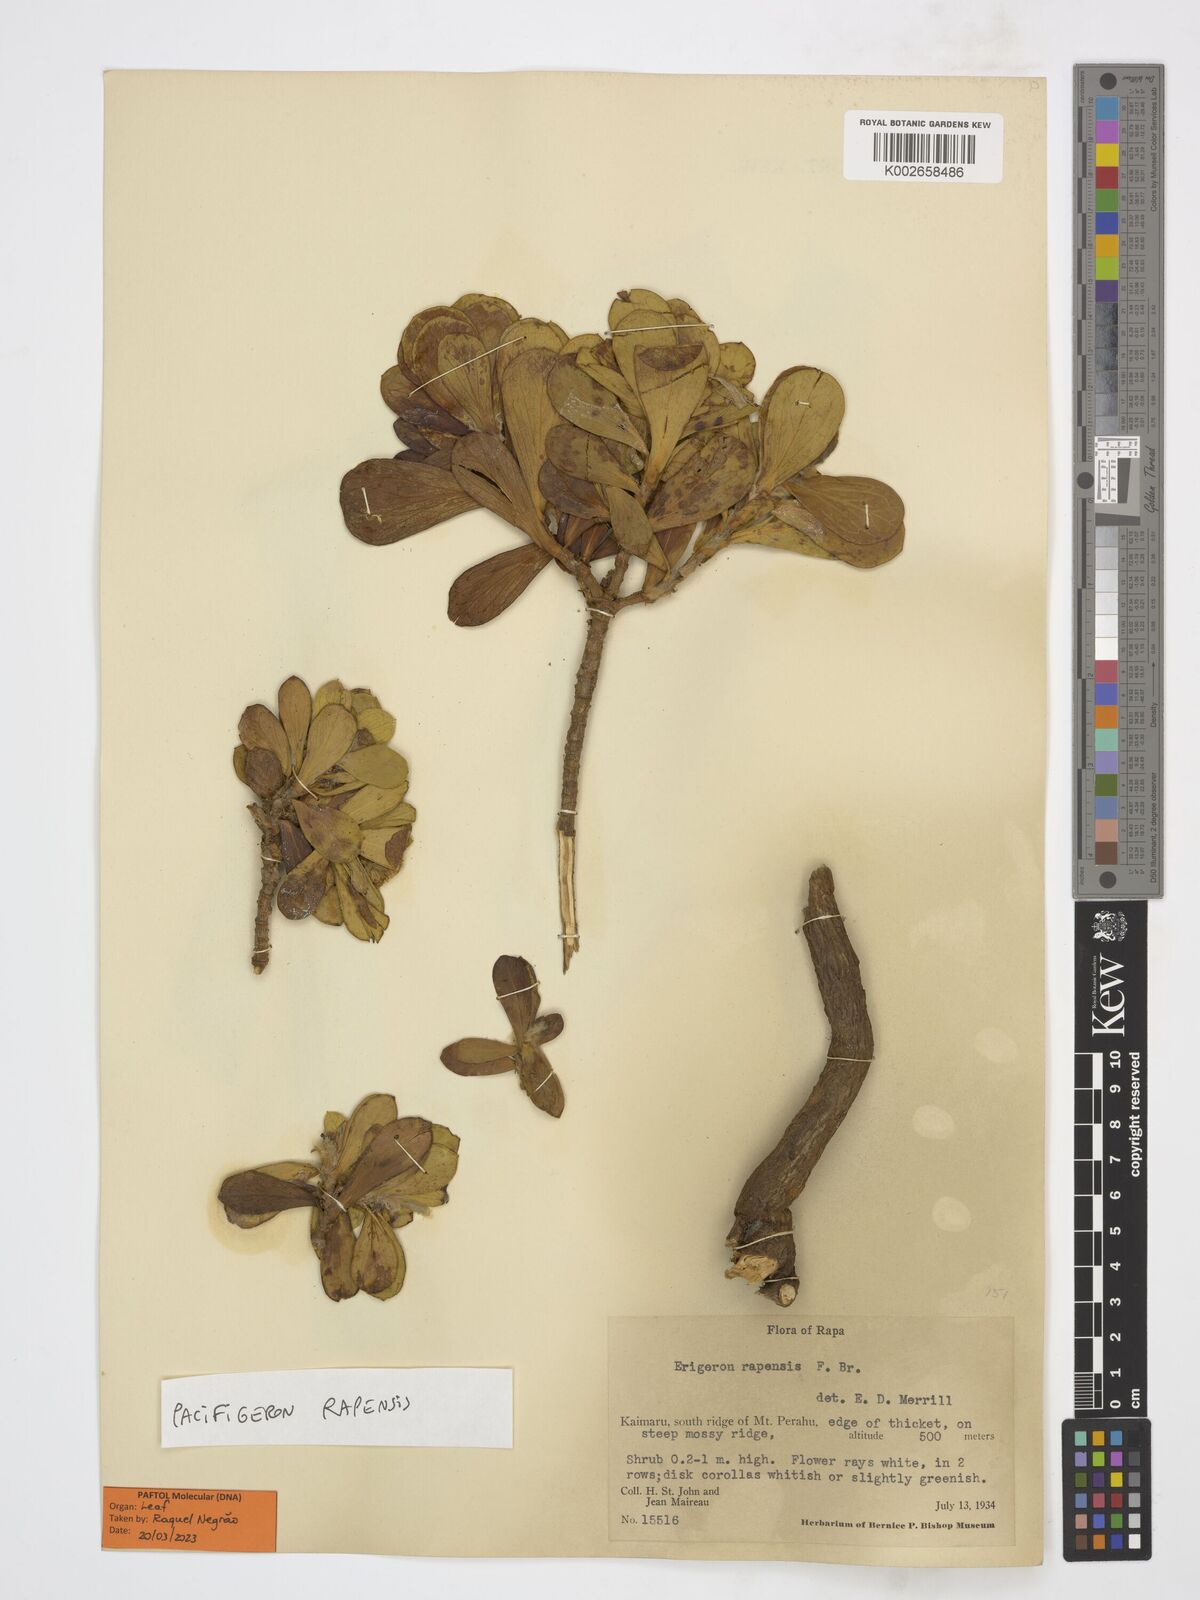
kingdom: Plantae
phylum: Tracheophyta
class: Magnoliopsida
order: Asterales
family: Asteraceae
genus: Pacifigeron
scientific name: Pacifigeron rapensis
